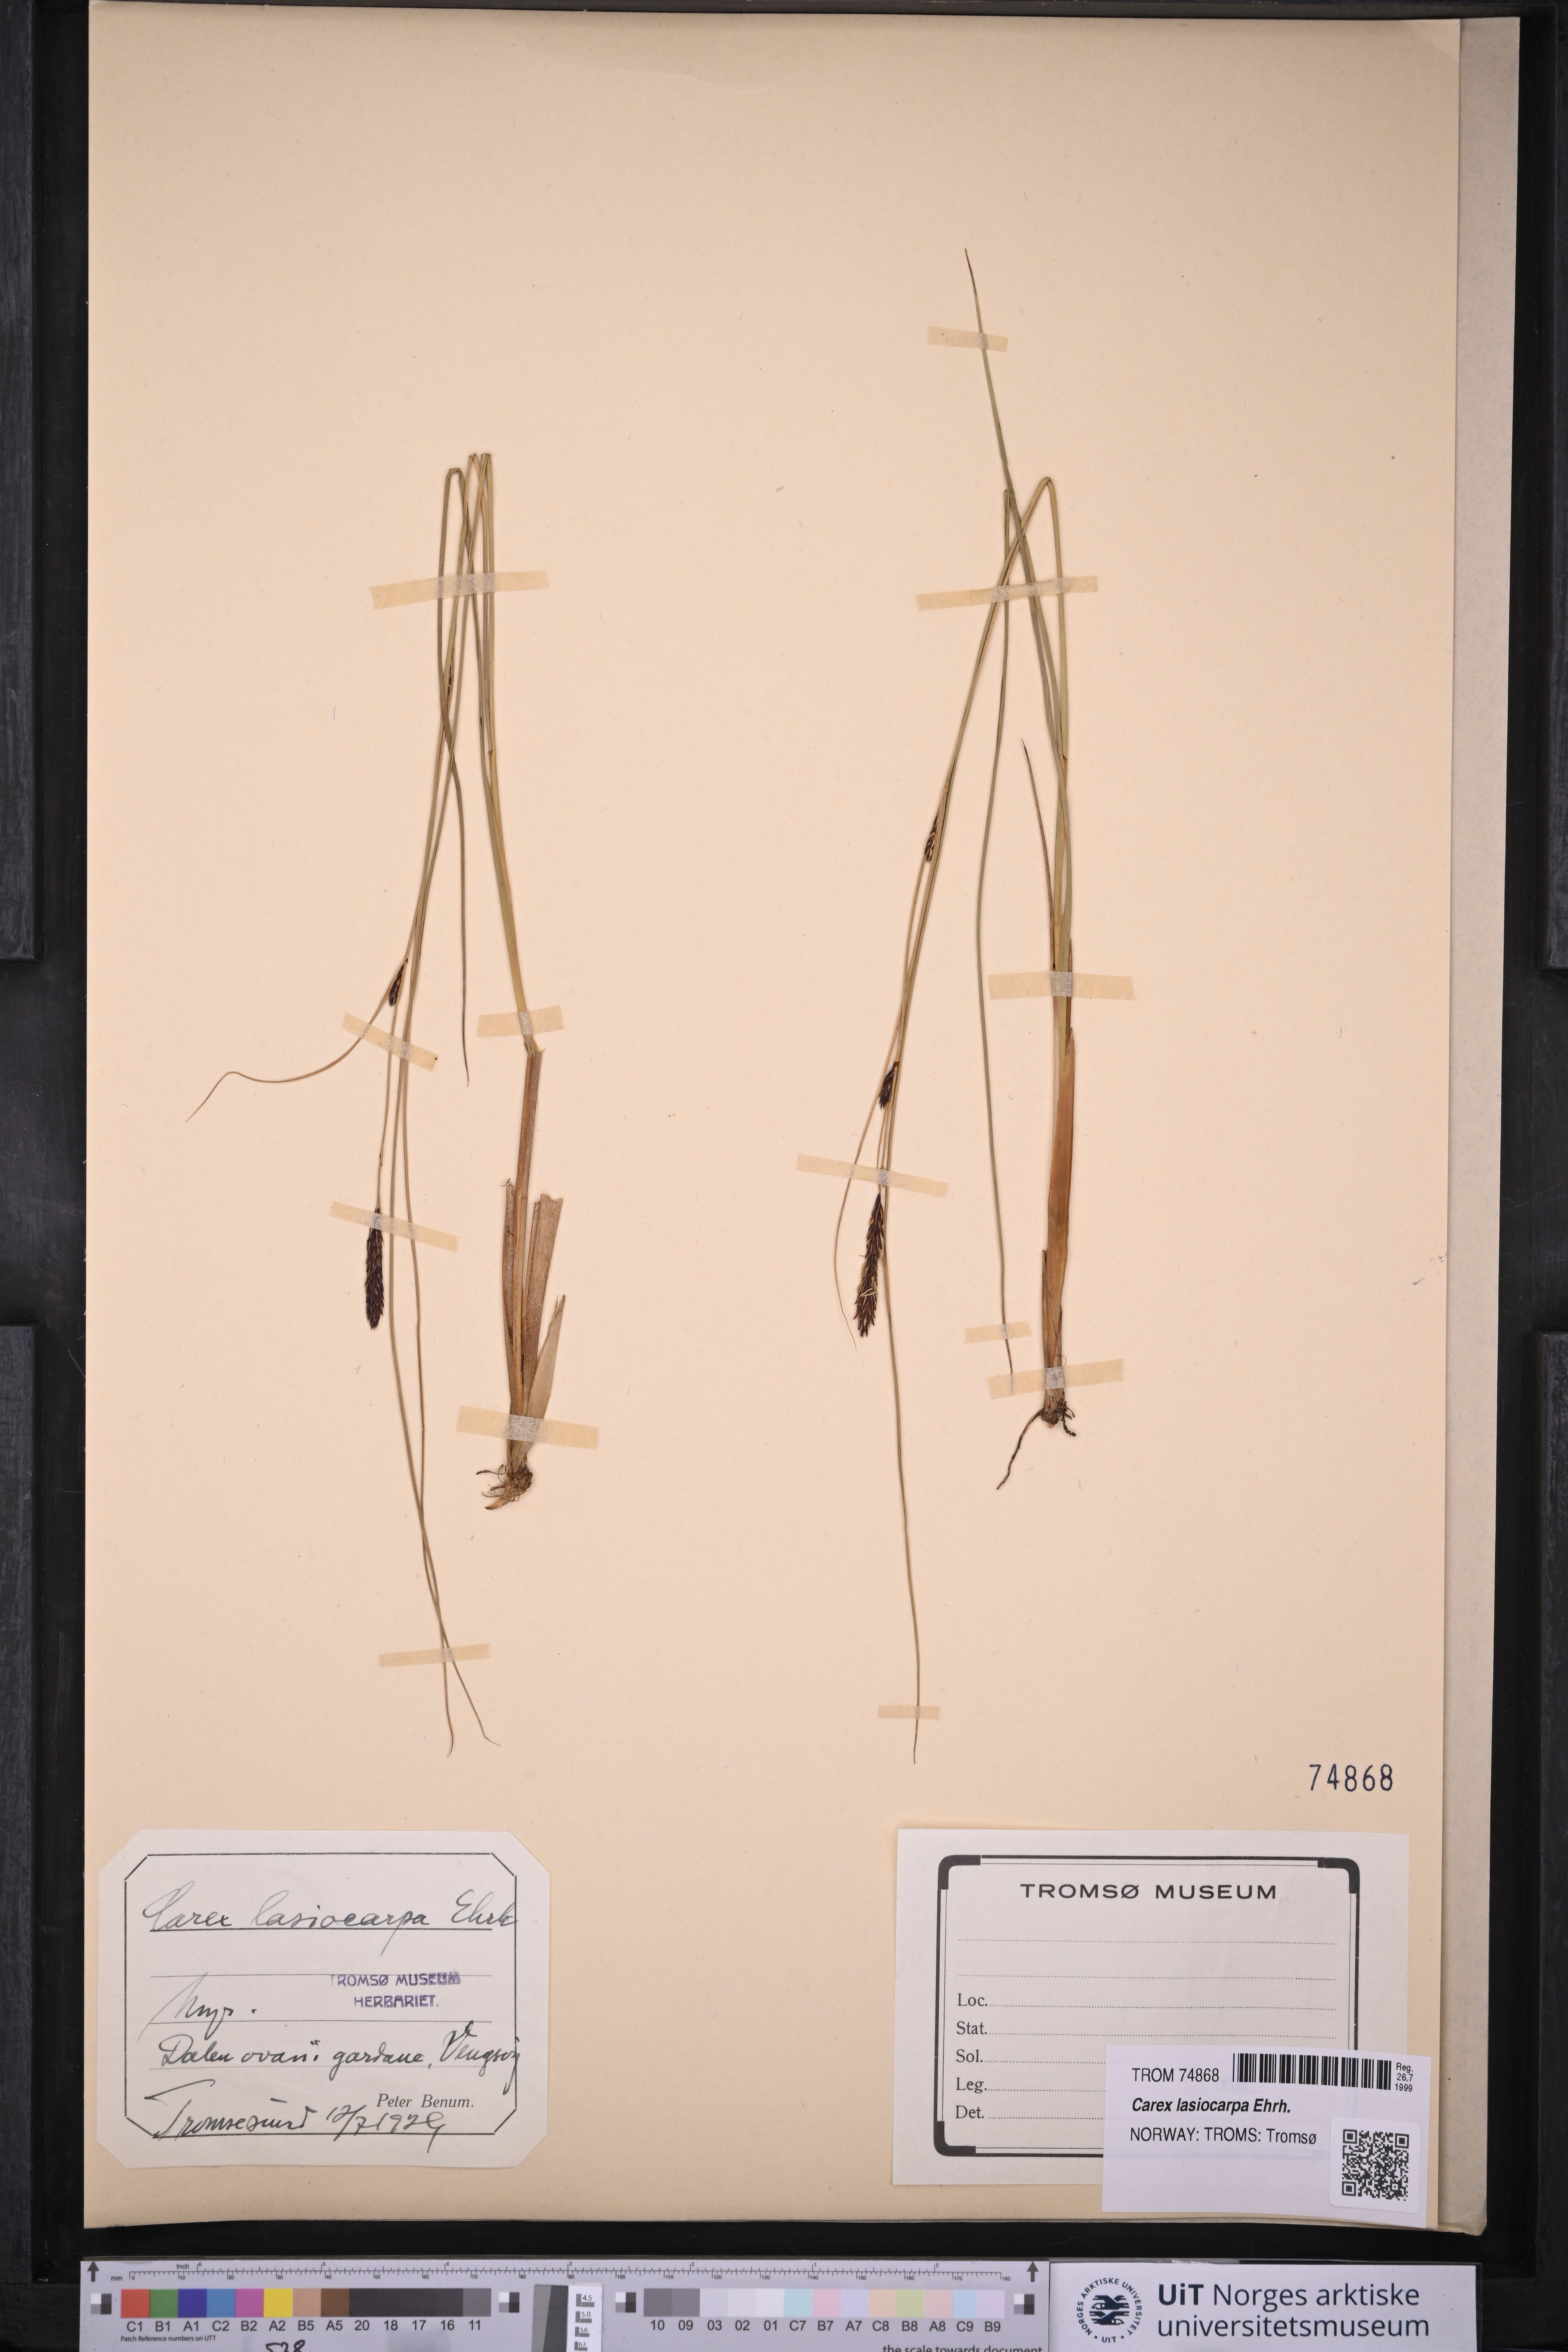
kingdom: Plantae
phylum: Tracheophyta
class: Liliopsida
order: Poales
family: Cyperaceae
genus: Carex
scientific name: Carex lasiocarpa
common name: Slender sedge
